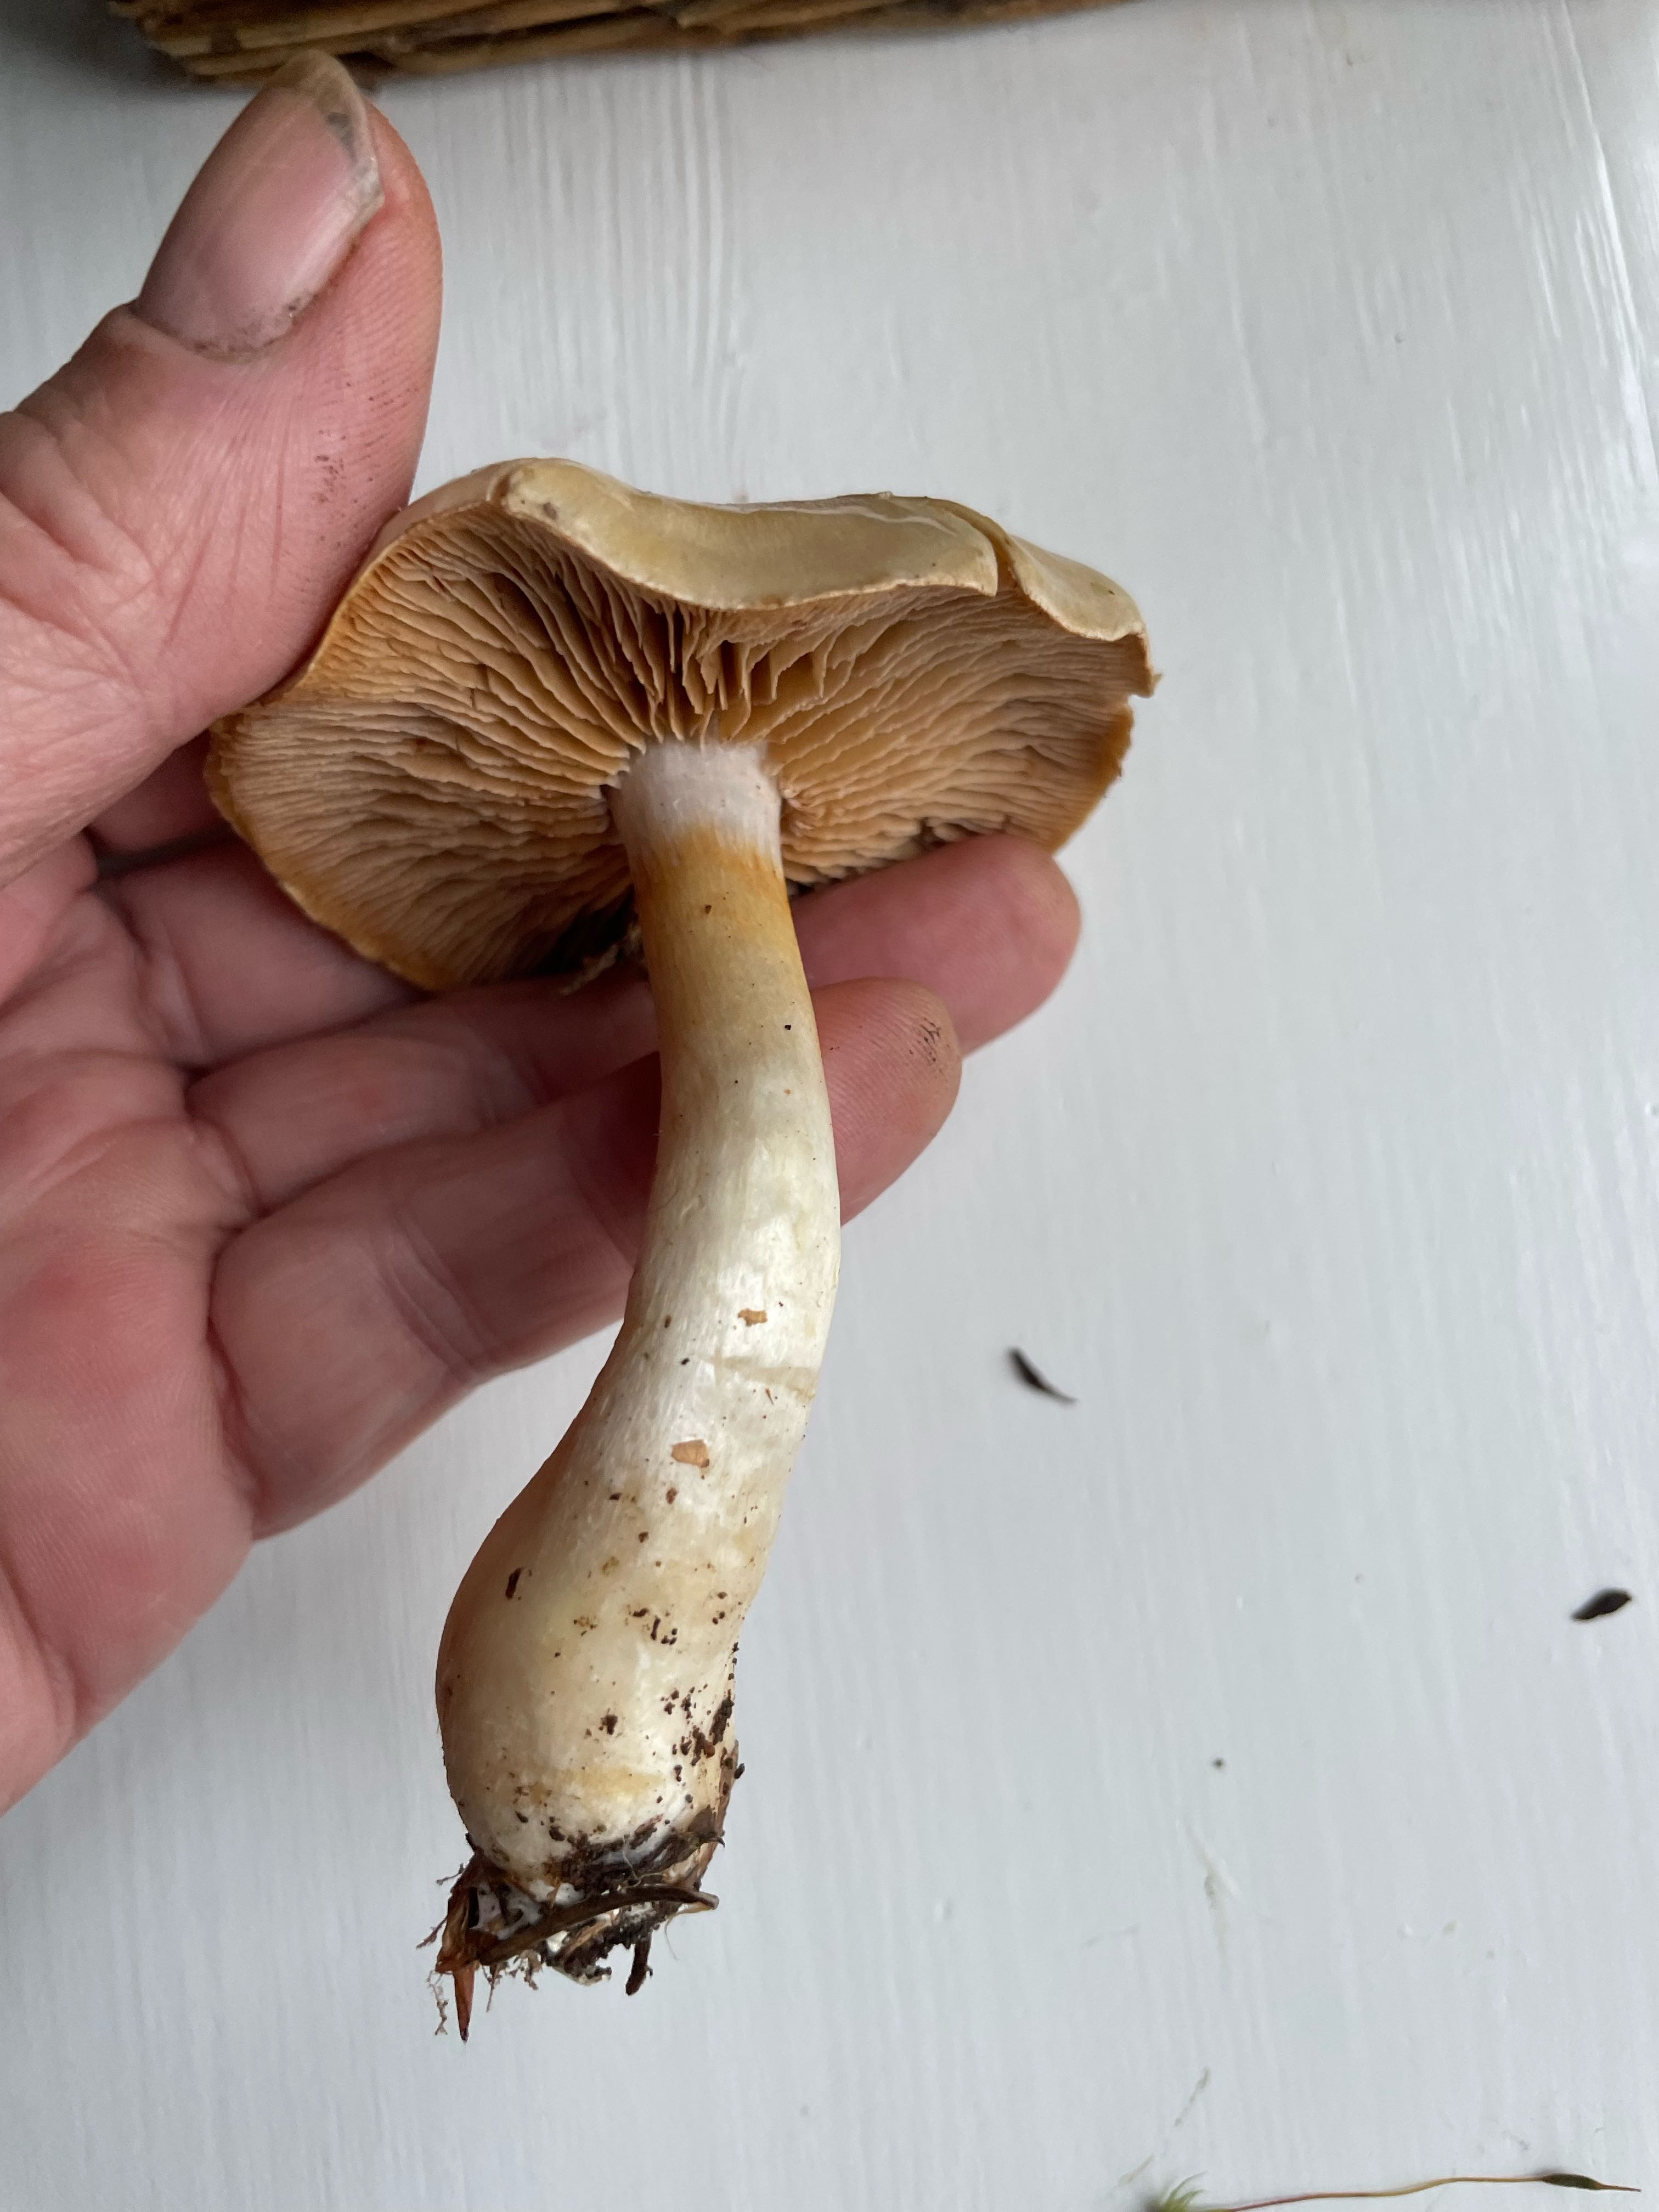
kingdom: Fungi
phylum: Basidiomycota
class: Agaricomycetes
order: Agaricales
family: Cortinariaceae
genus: Cortinarius
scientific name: Cortinarius
